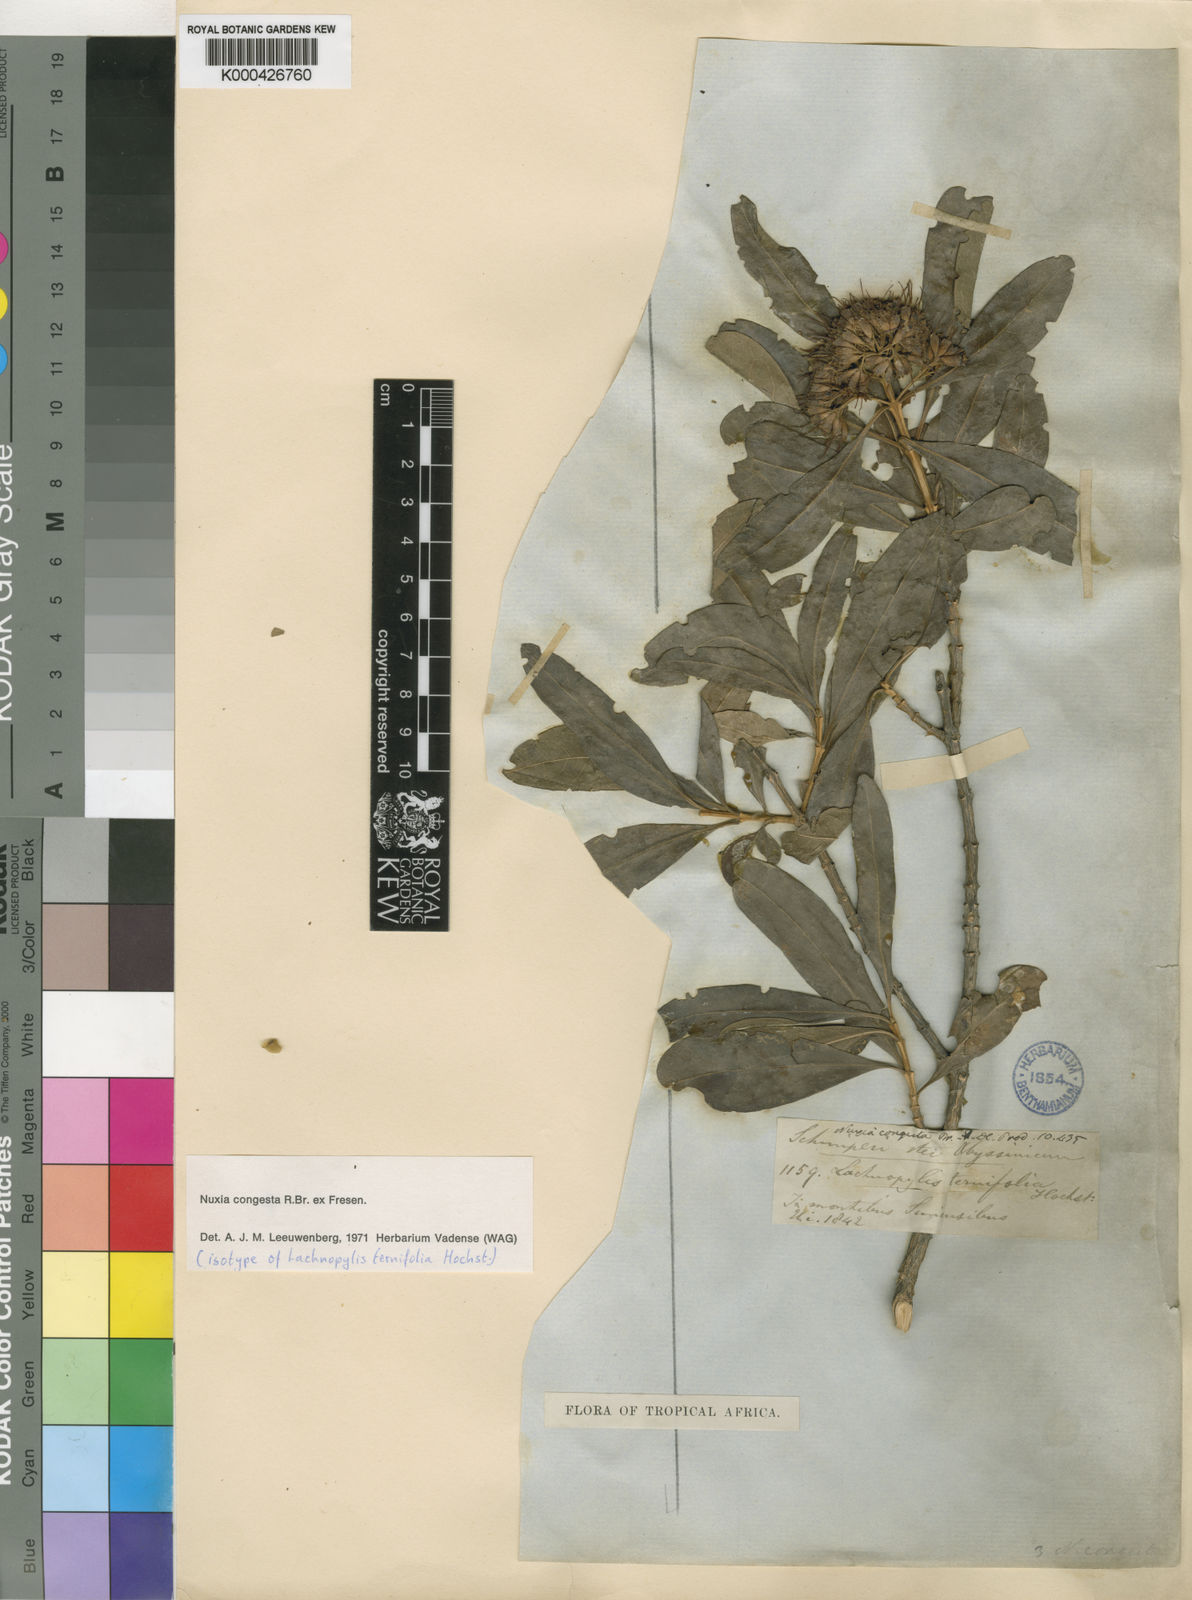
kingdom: Plantae
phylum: Tracheophyta
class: Magnoliopsida
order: Lamiales
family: Stilbaceae
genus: Nuxia
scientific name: Nuxia congesta
